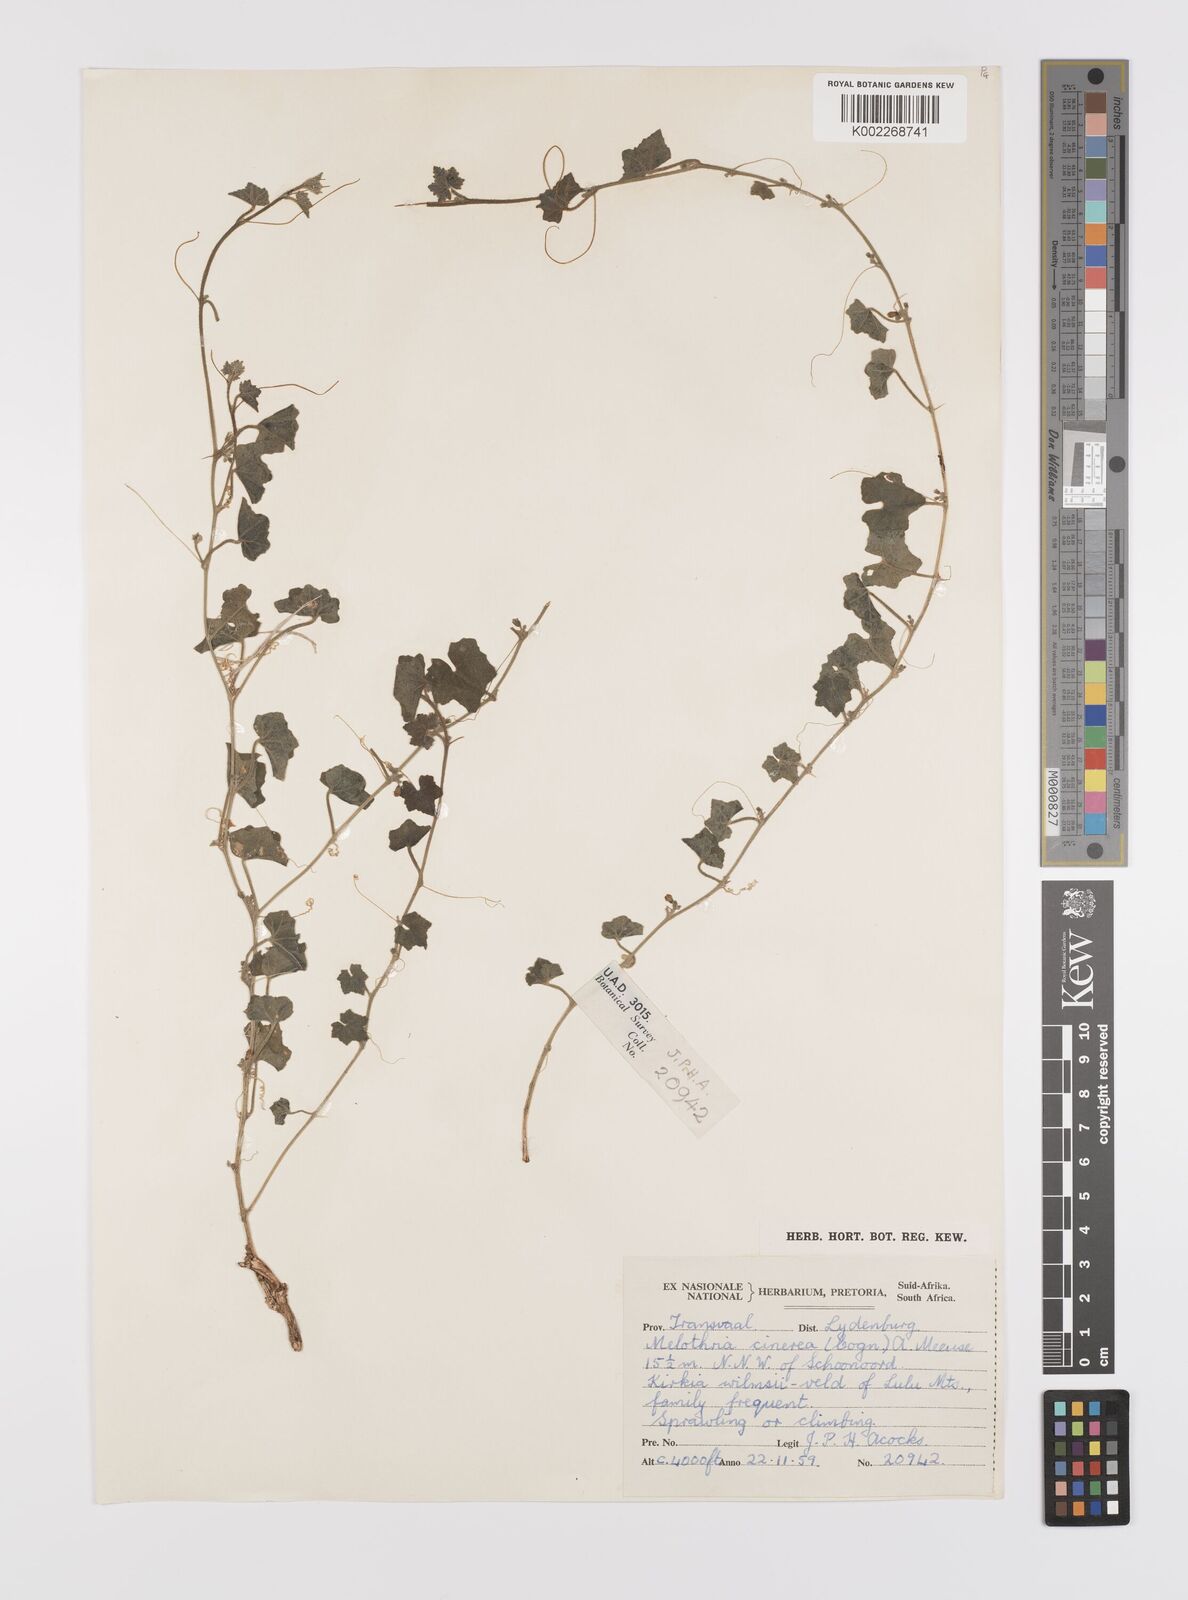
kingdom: Plantae
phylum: Tracheophyta
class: Magnoliopsida
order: Cucurbitales
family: Cucurbitaceae
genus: Cucumis
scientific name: Cucumis cinereus
